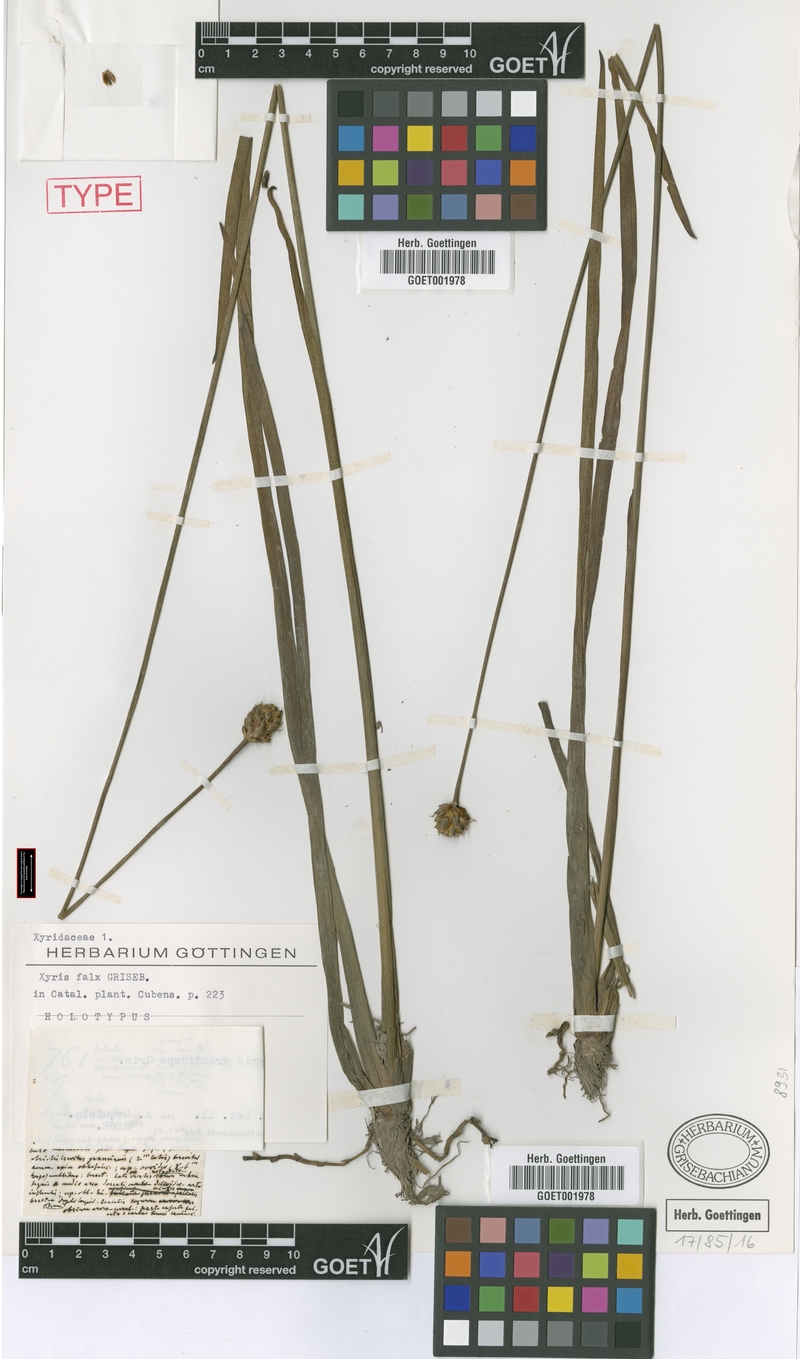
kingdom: Plantae
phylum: Tracheophyta
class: Liliopsida
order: Poales
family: Xyridaceae
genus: Xyris
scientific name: Xyris grandiceps
